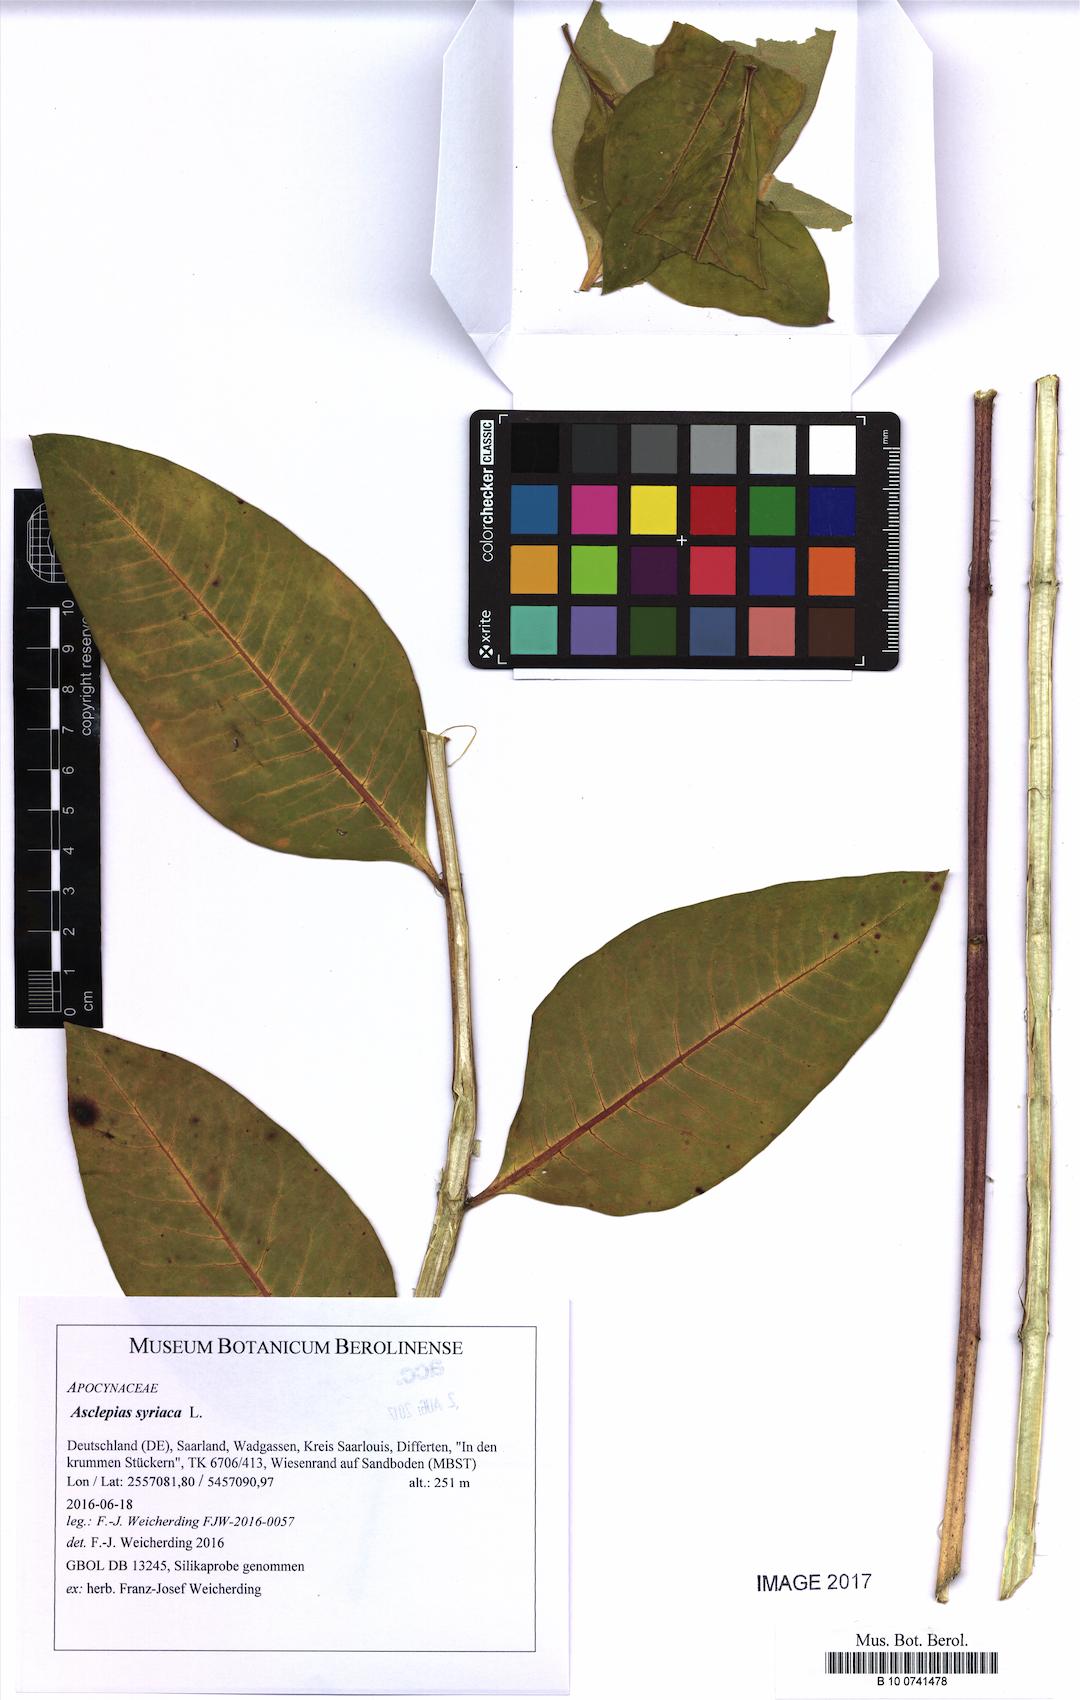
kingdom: Plantae
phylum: Tracheophyta
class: Magnoliopsida
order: Gentianales
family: Apocynaceae
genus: Asclepias
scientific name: Asclepias syriaca
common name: Common milkweed
